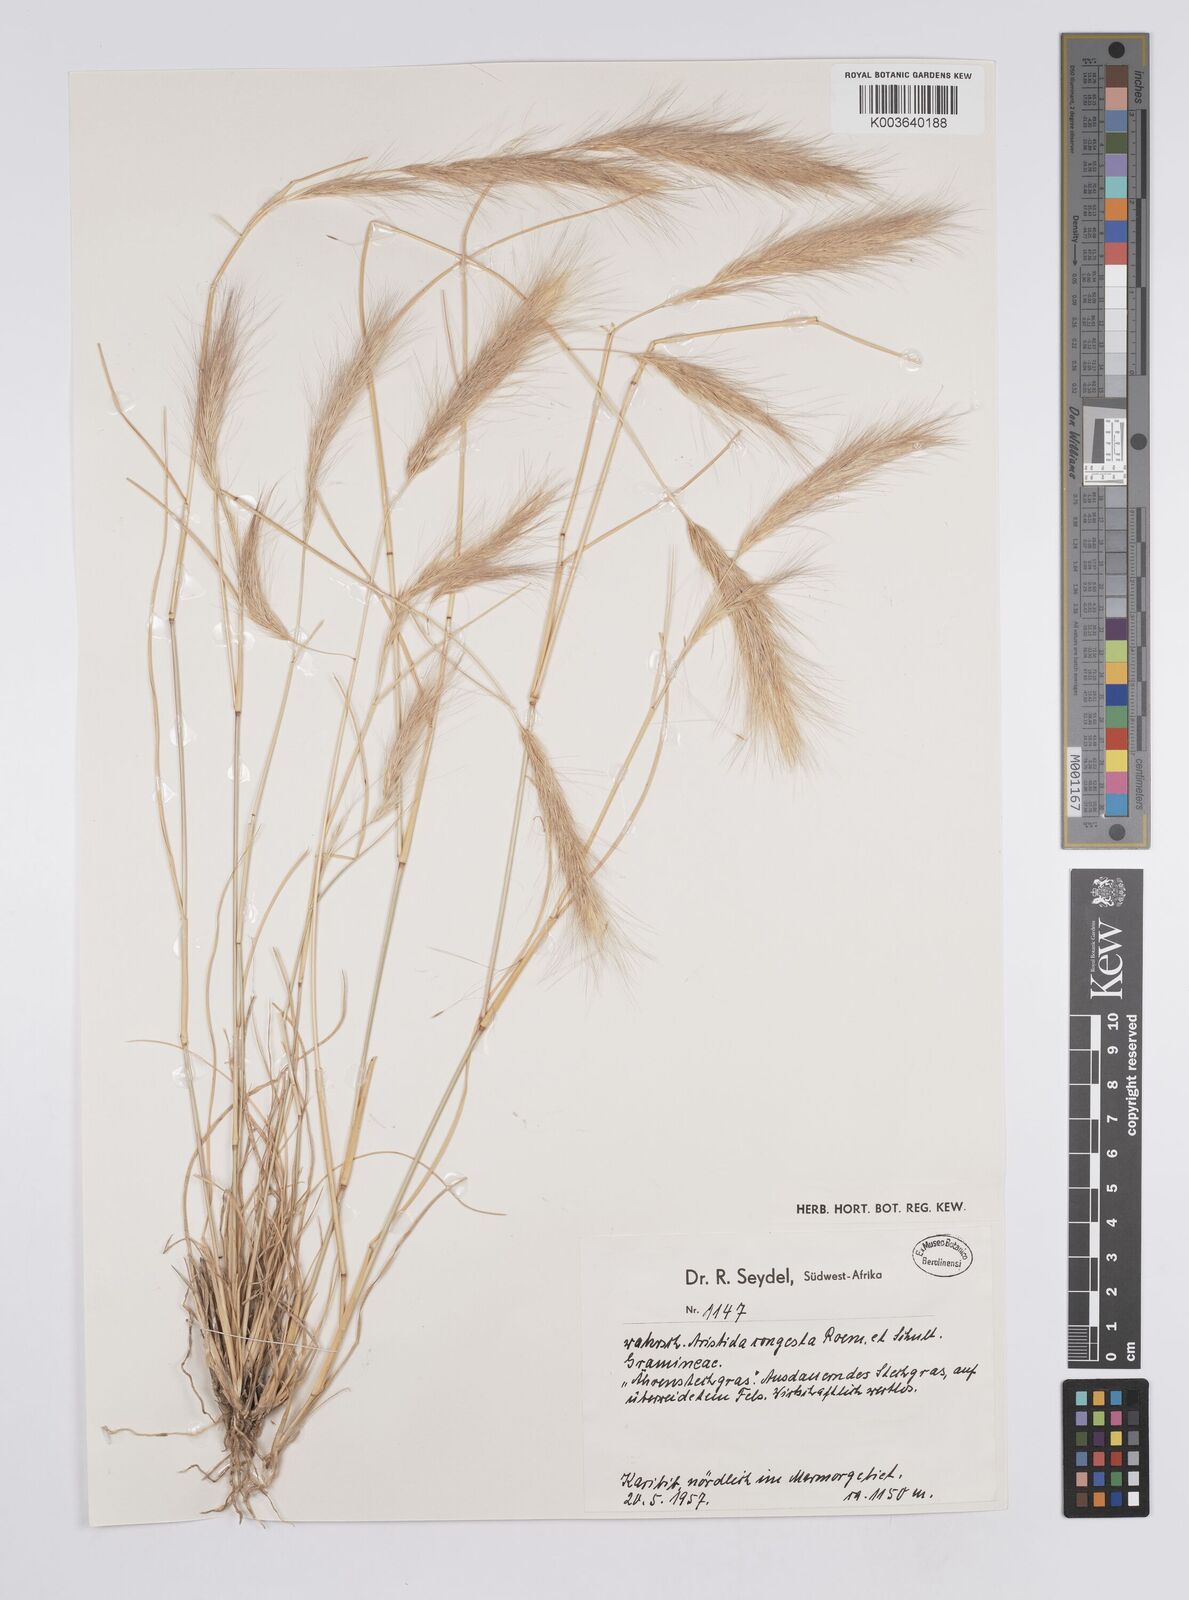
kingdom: Plantae
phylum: Tracheophyta
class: Liliopsida
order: Poales
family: Poaceae
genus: Aristida
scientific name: Aristida congesta
